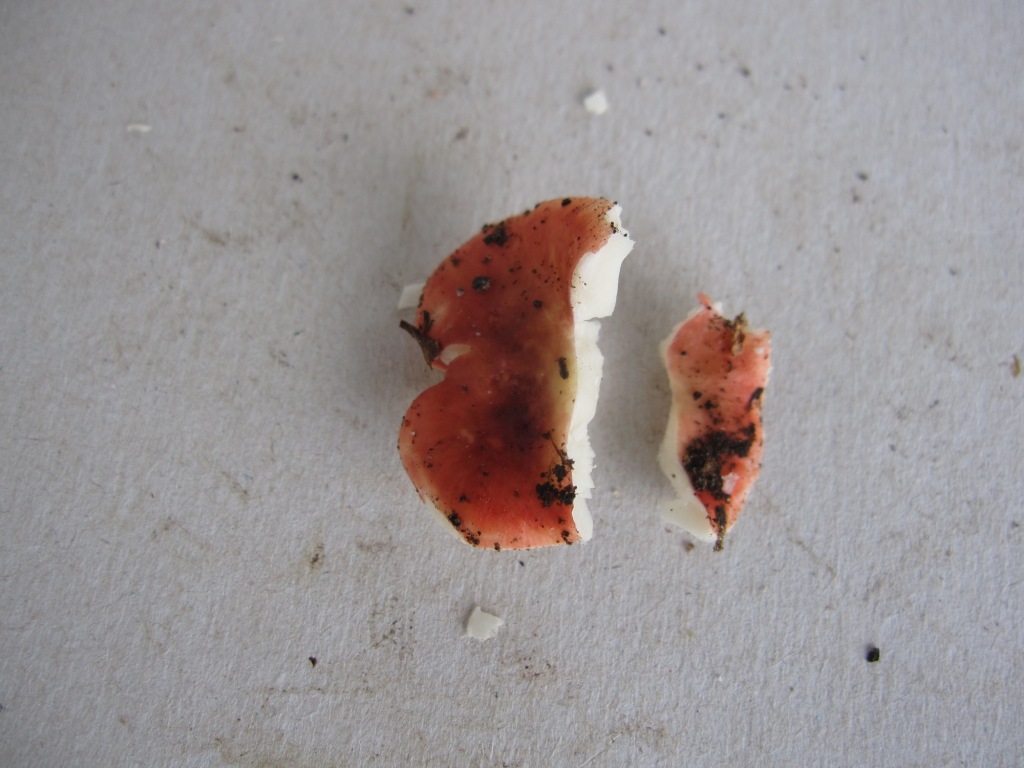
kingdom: Fungi
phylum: Basidiomycota
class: Agaricomycetes
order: Russulales
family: Russulaceae
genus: Russula
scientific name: Russula nobilis
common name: lille gift-skørhat
